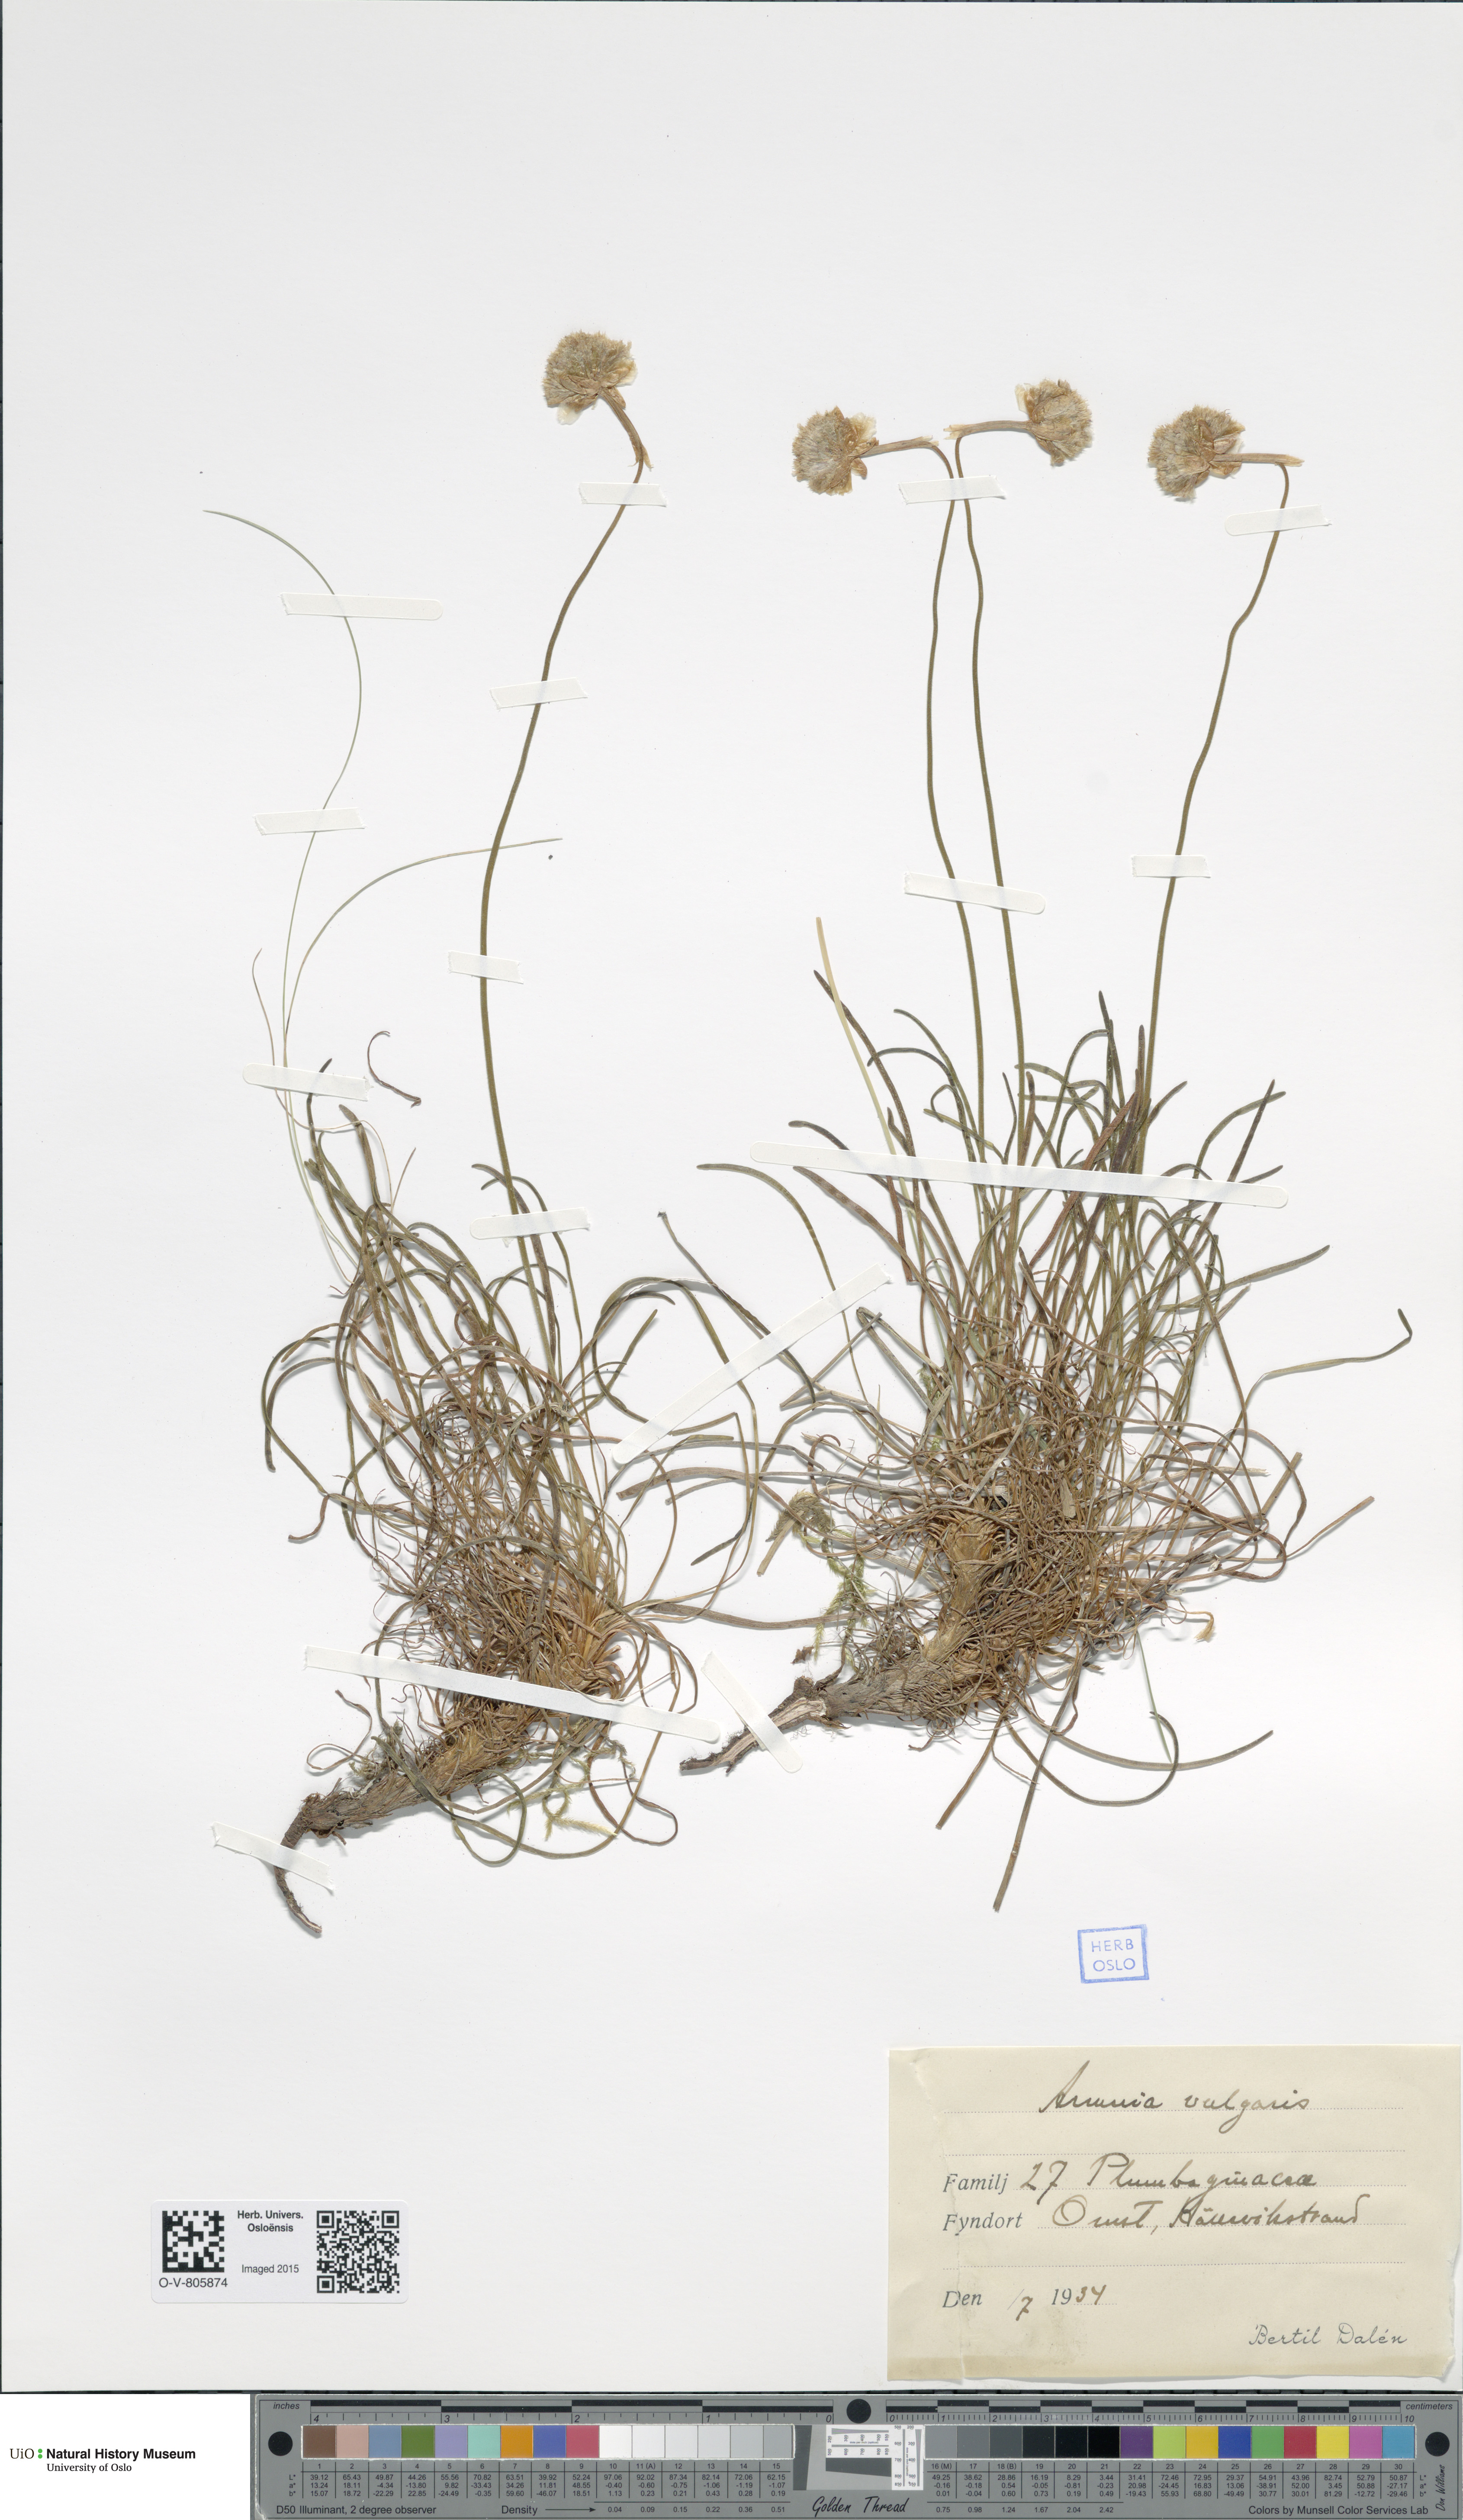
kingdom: Plantae
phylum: Tracheophyta
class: Magnoliopsida
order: Caryophyllales
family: Plumbaginaceae
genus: Armeria
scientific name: Armeria maritima
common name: Thrift
